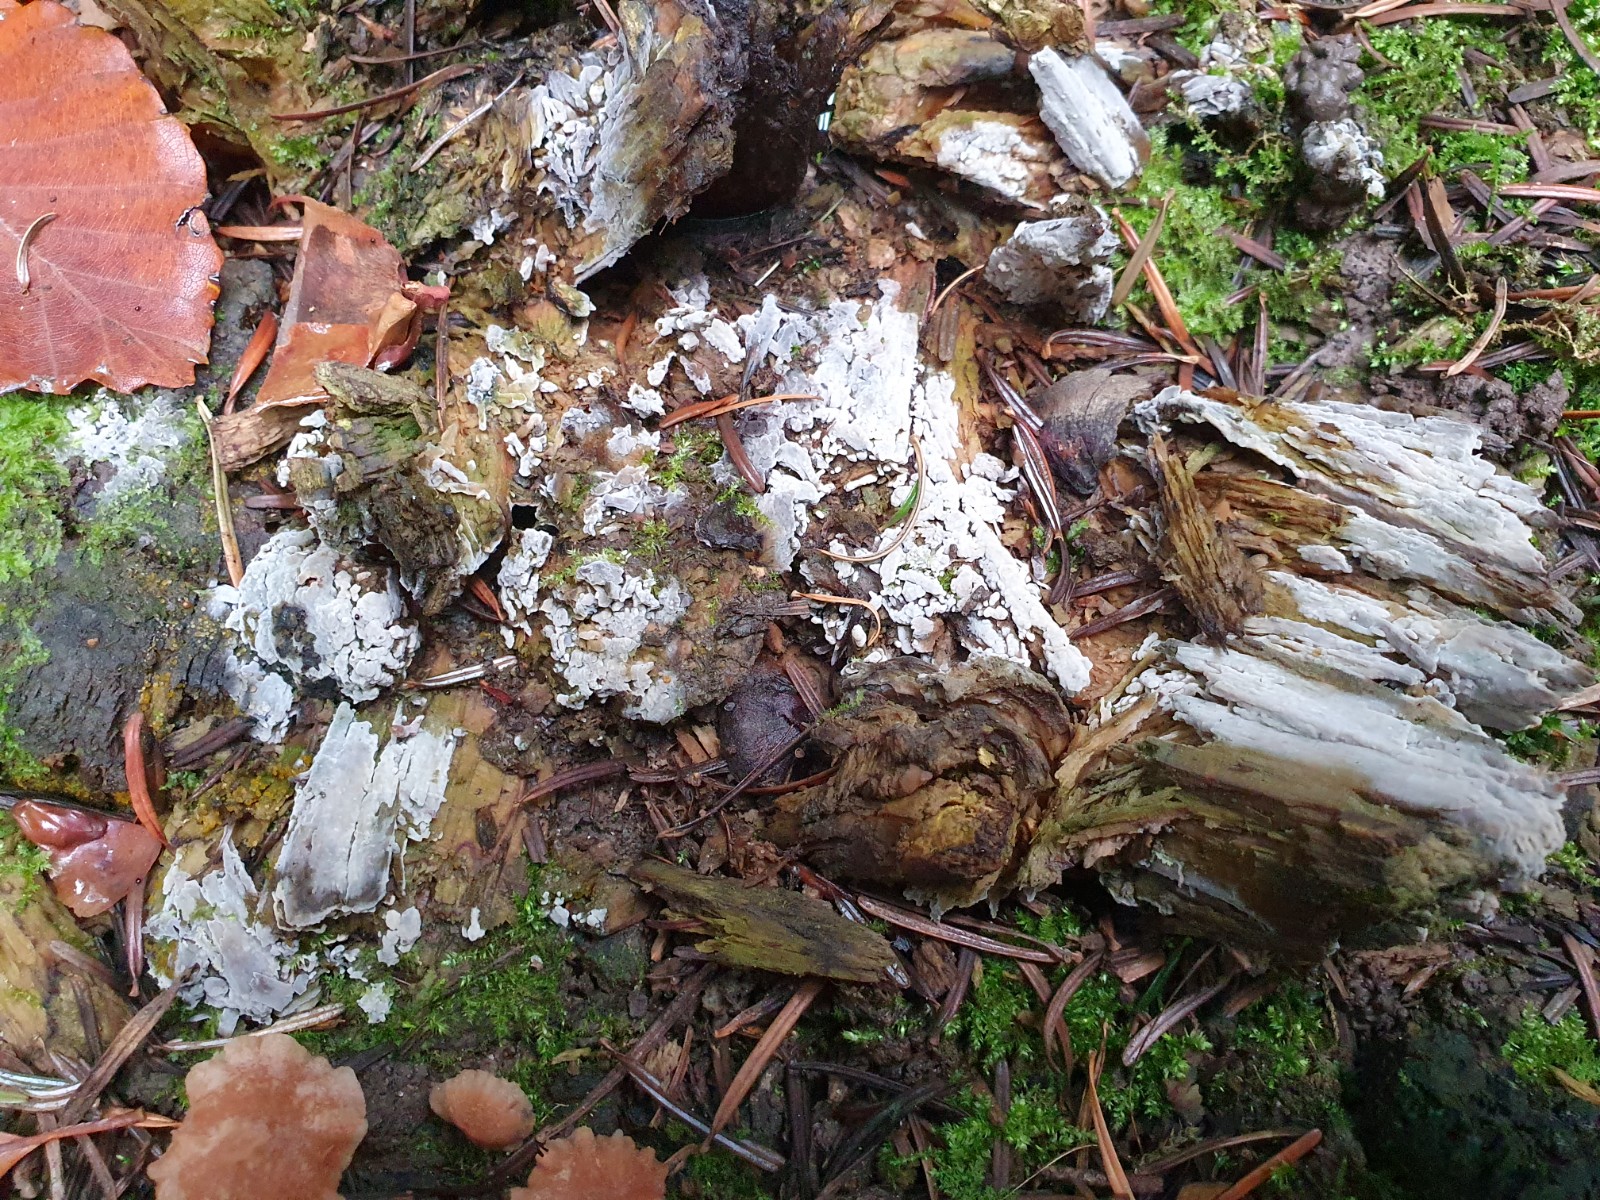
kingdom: Fungi
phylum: Basidiomycota
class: Agaricomycetes
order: Corticiales
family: Corticiaceae
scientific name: Corticiaceae
